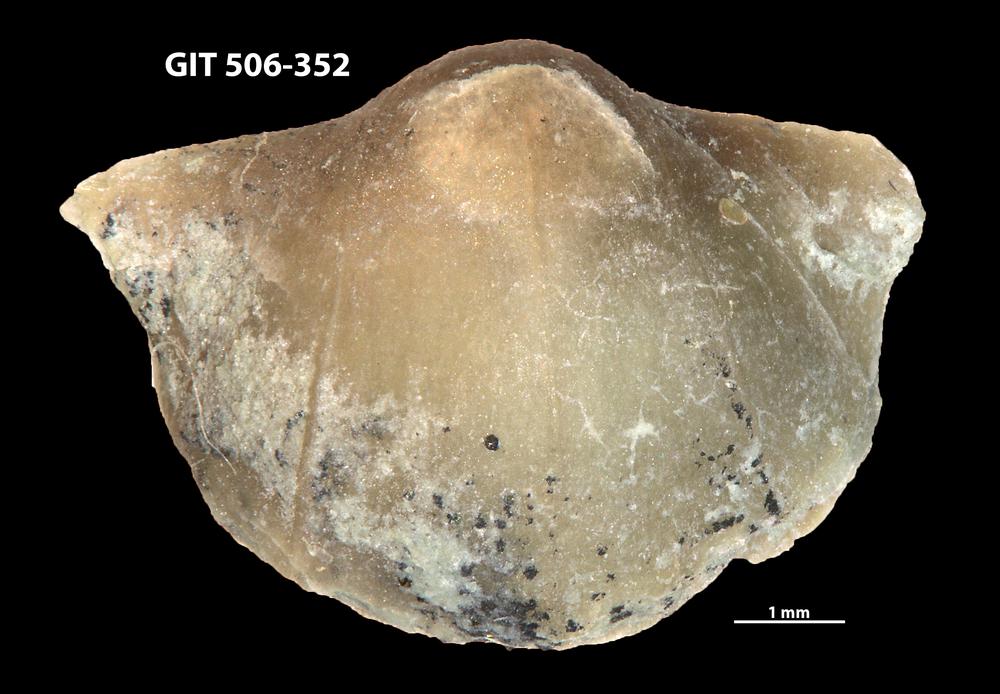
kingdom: Animalia
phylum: Brachiopoda
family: Oldhaminidae
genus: Eoplectodonta
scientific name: Eoplectodonta penkillensis
